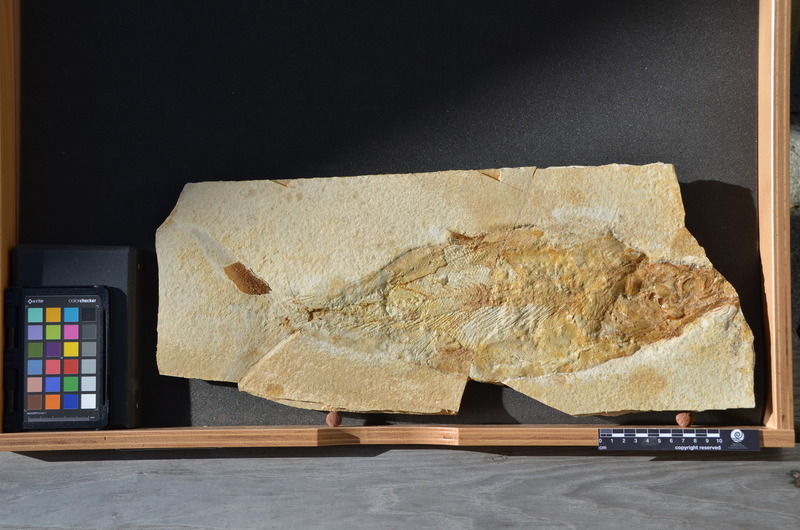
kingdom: Animalia
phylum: Chordata
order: Amiiformes
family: Caturidae
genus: Caturus
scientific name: Caturus furcatus
